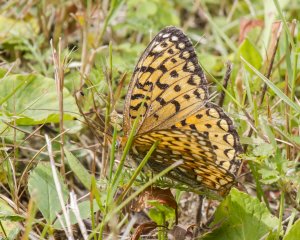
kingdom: Animalia
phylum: Arthropoda
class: Insecta
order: Lepidoptera
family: Nymphalidae
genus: Speyeria
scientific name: Speyeria atlantis
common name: Atlantis Fritillary
